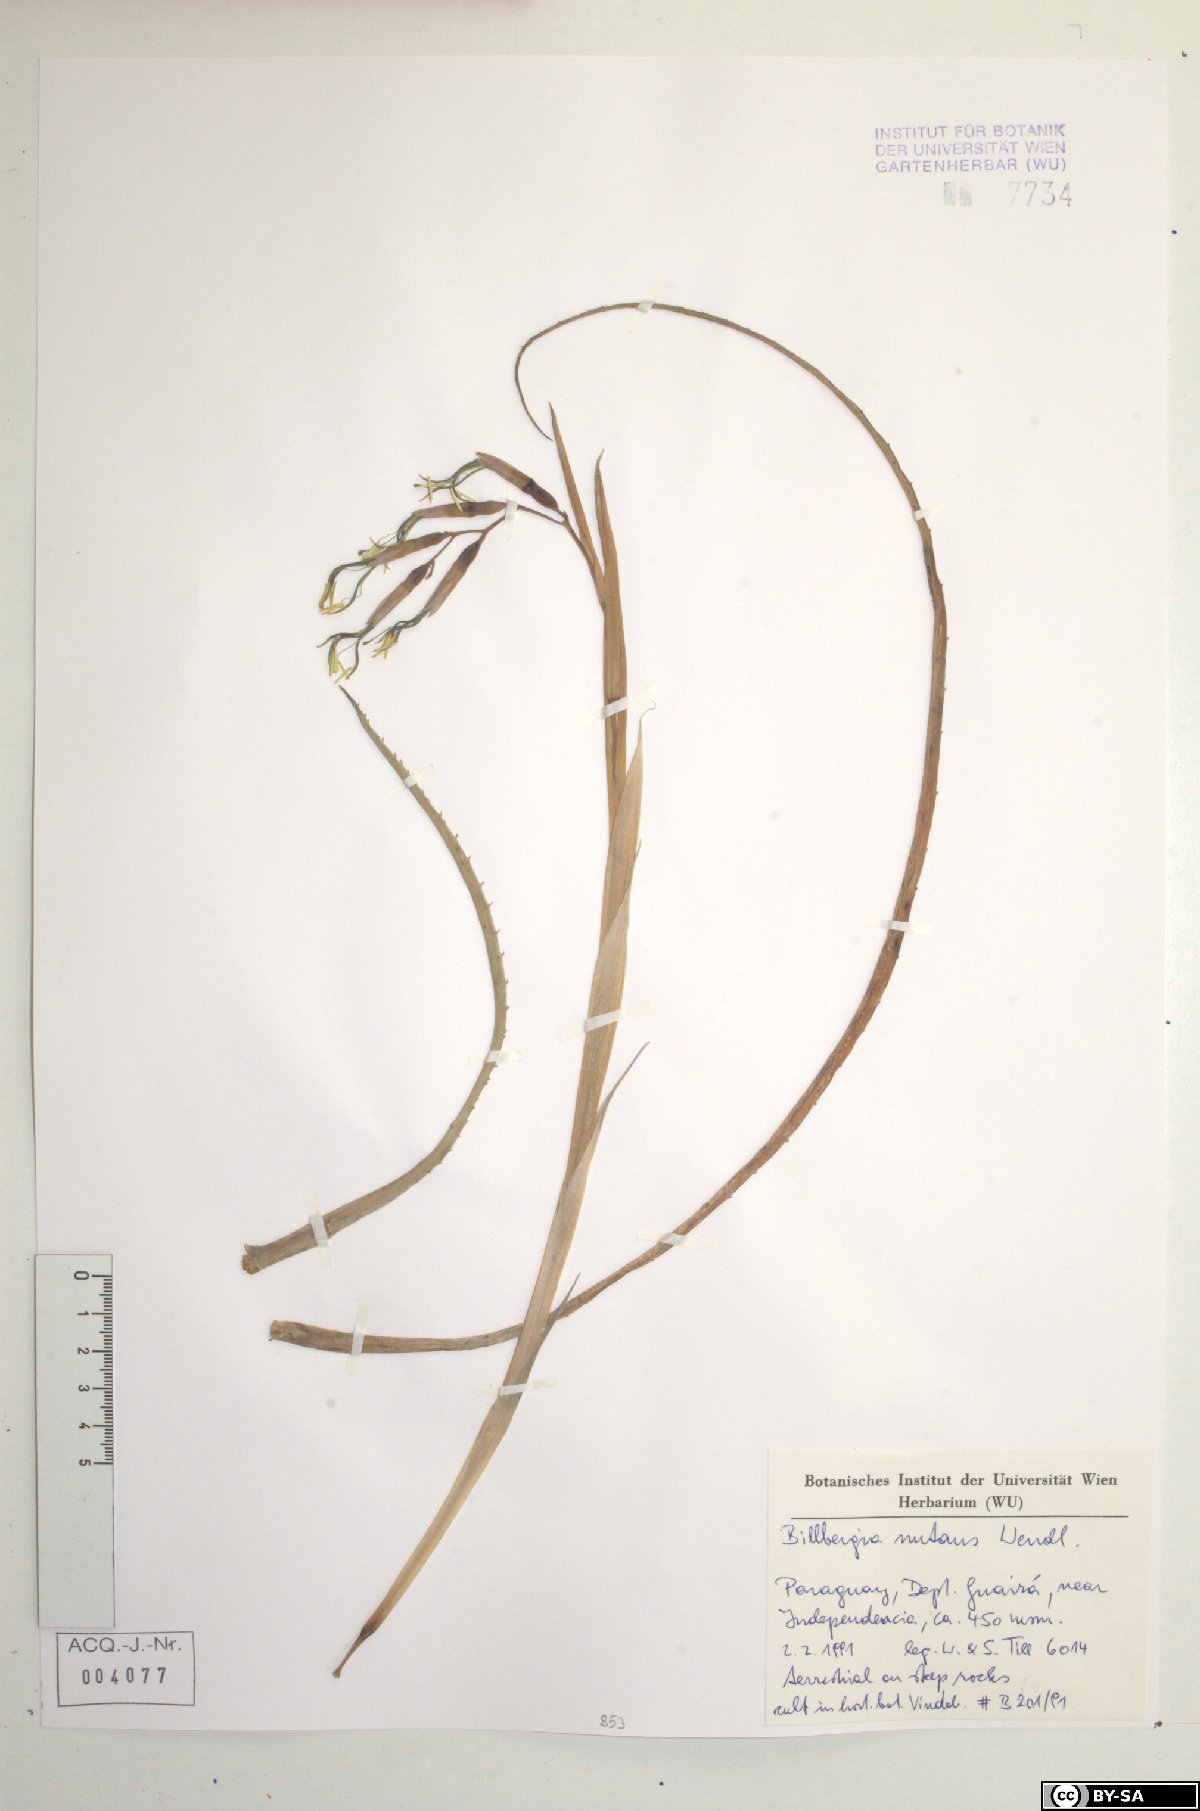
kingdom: Plantae
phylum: Tracheophyta
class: Liliopsida
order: Poales
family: Bromeliaceae
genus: Billbergia
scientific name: Billbergia nutans
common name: Friendship-plant
